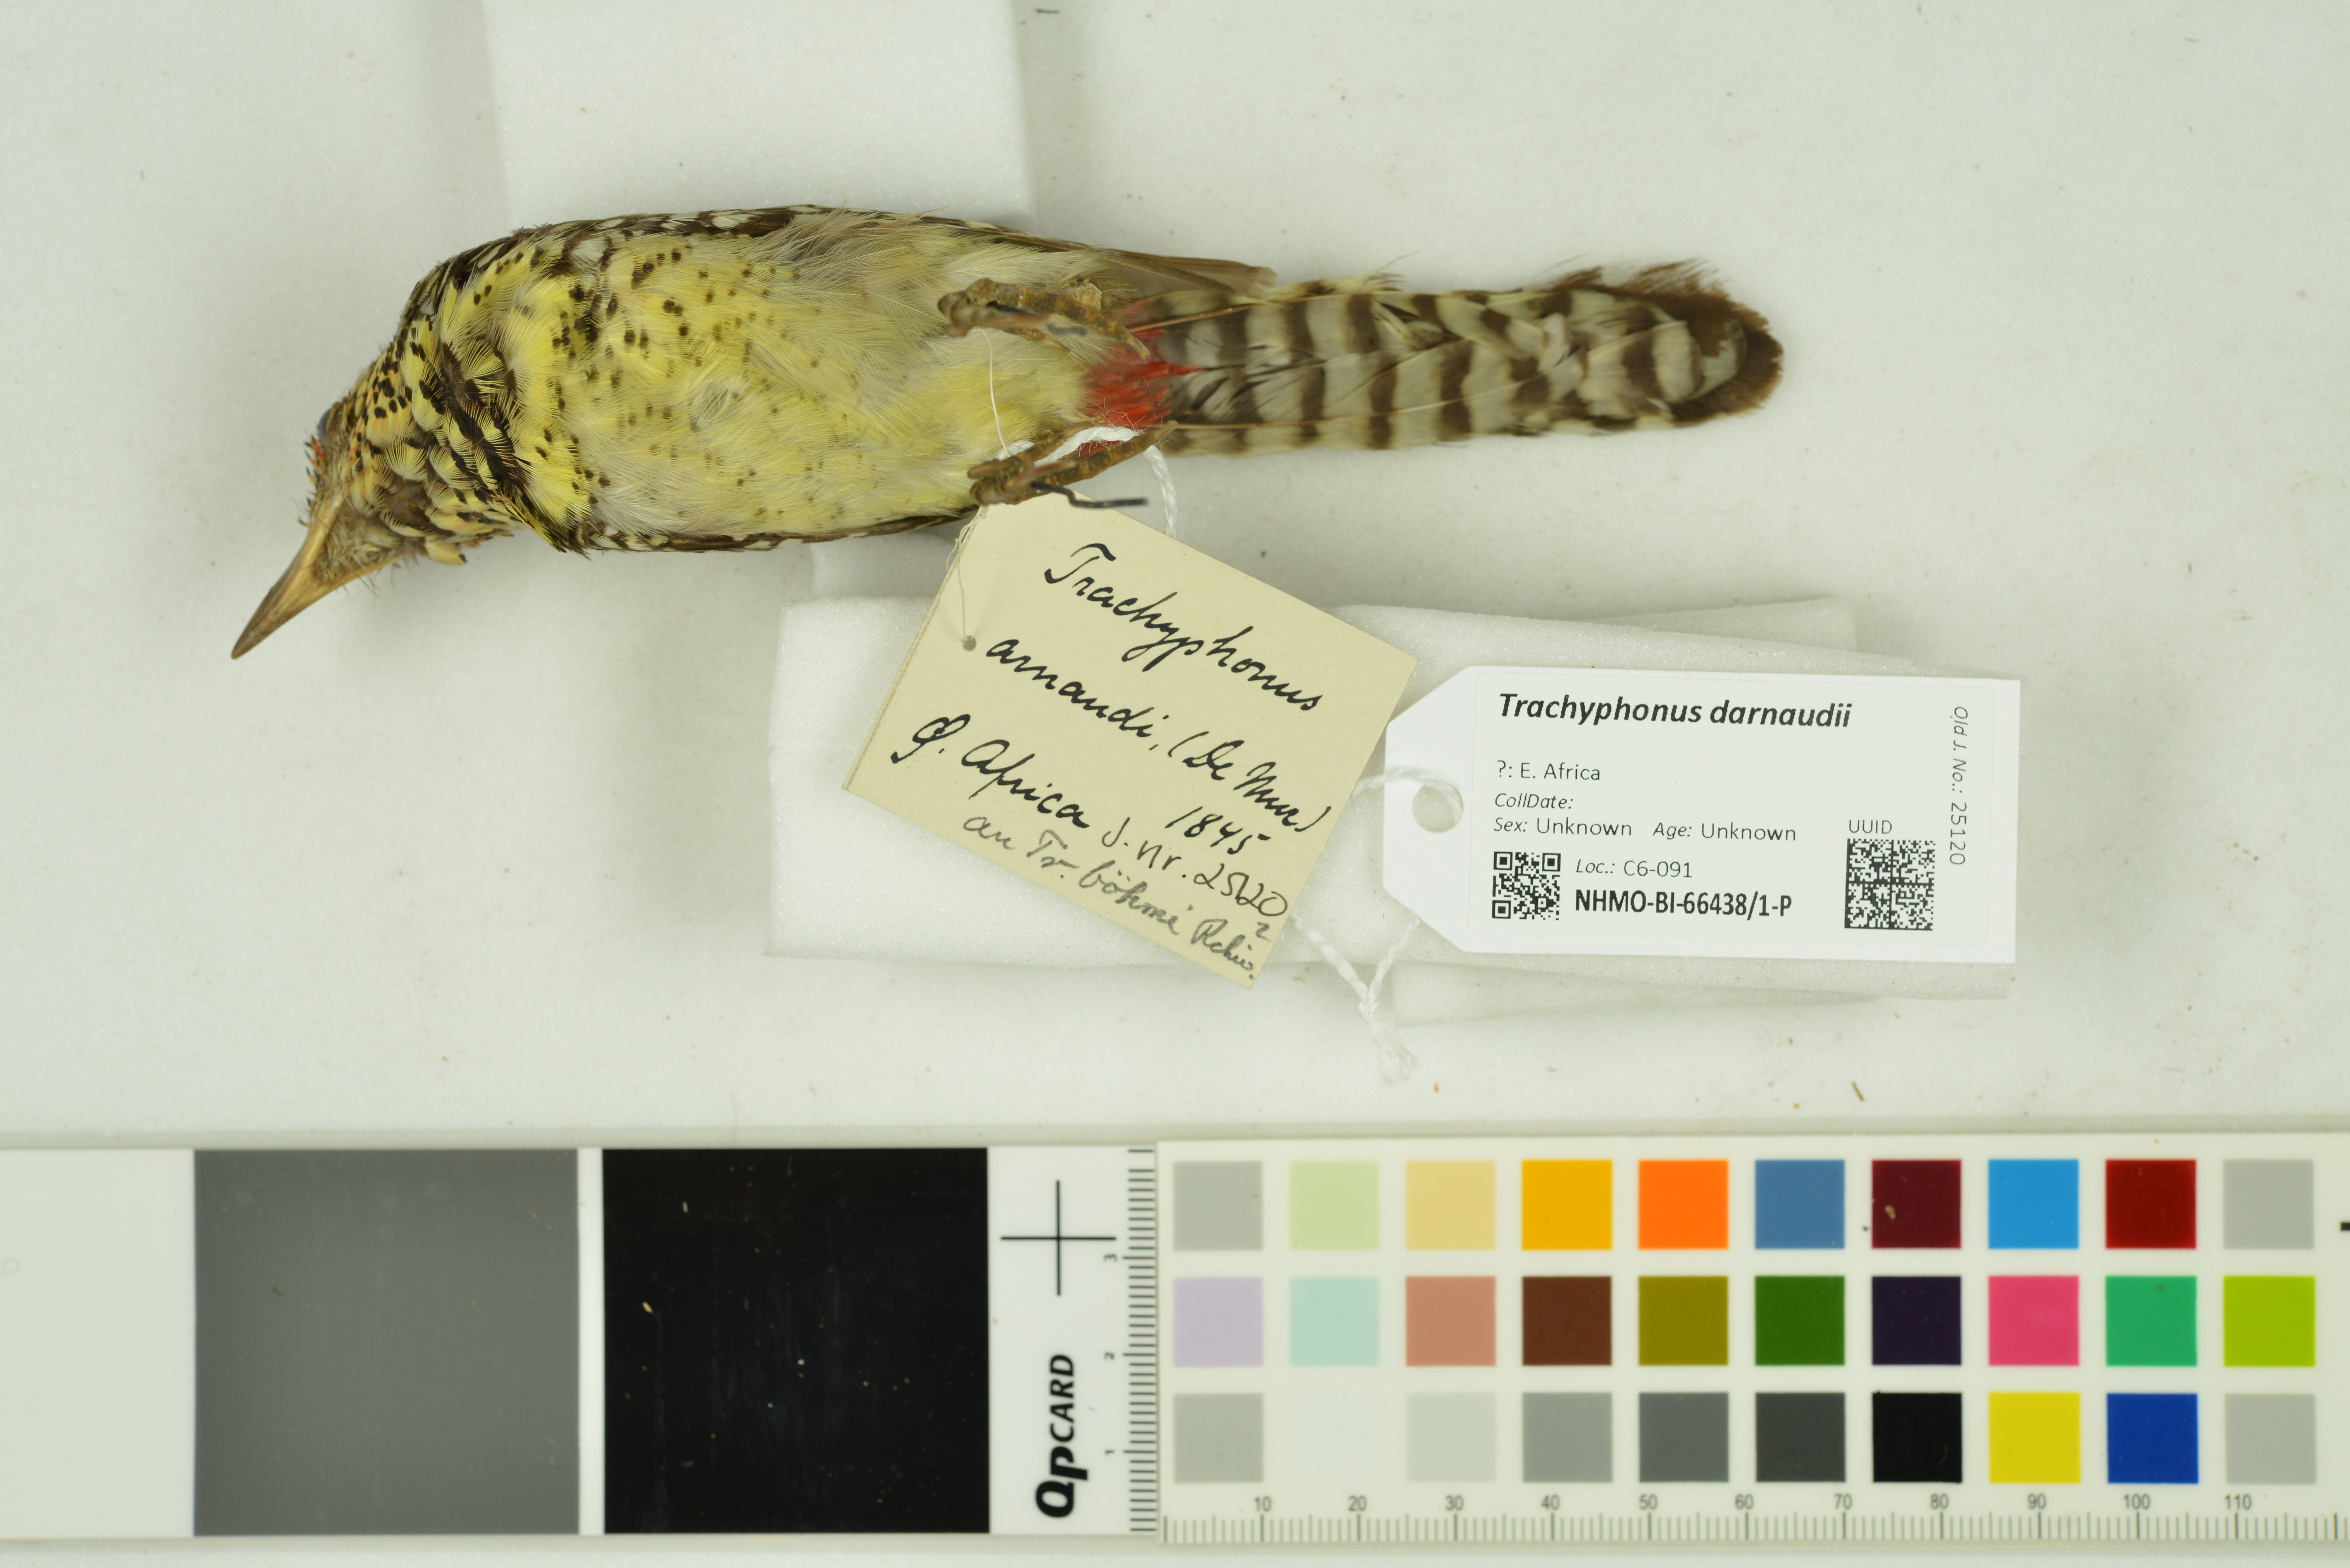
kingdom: Animalia
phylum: Chordata
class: Aves
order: Piciformes
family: Lybiidae
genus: Trachyphonus
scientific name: Trachyphonus darnaudii
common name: D'arnaud's barbet
